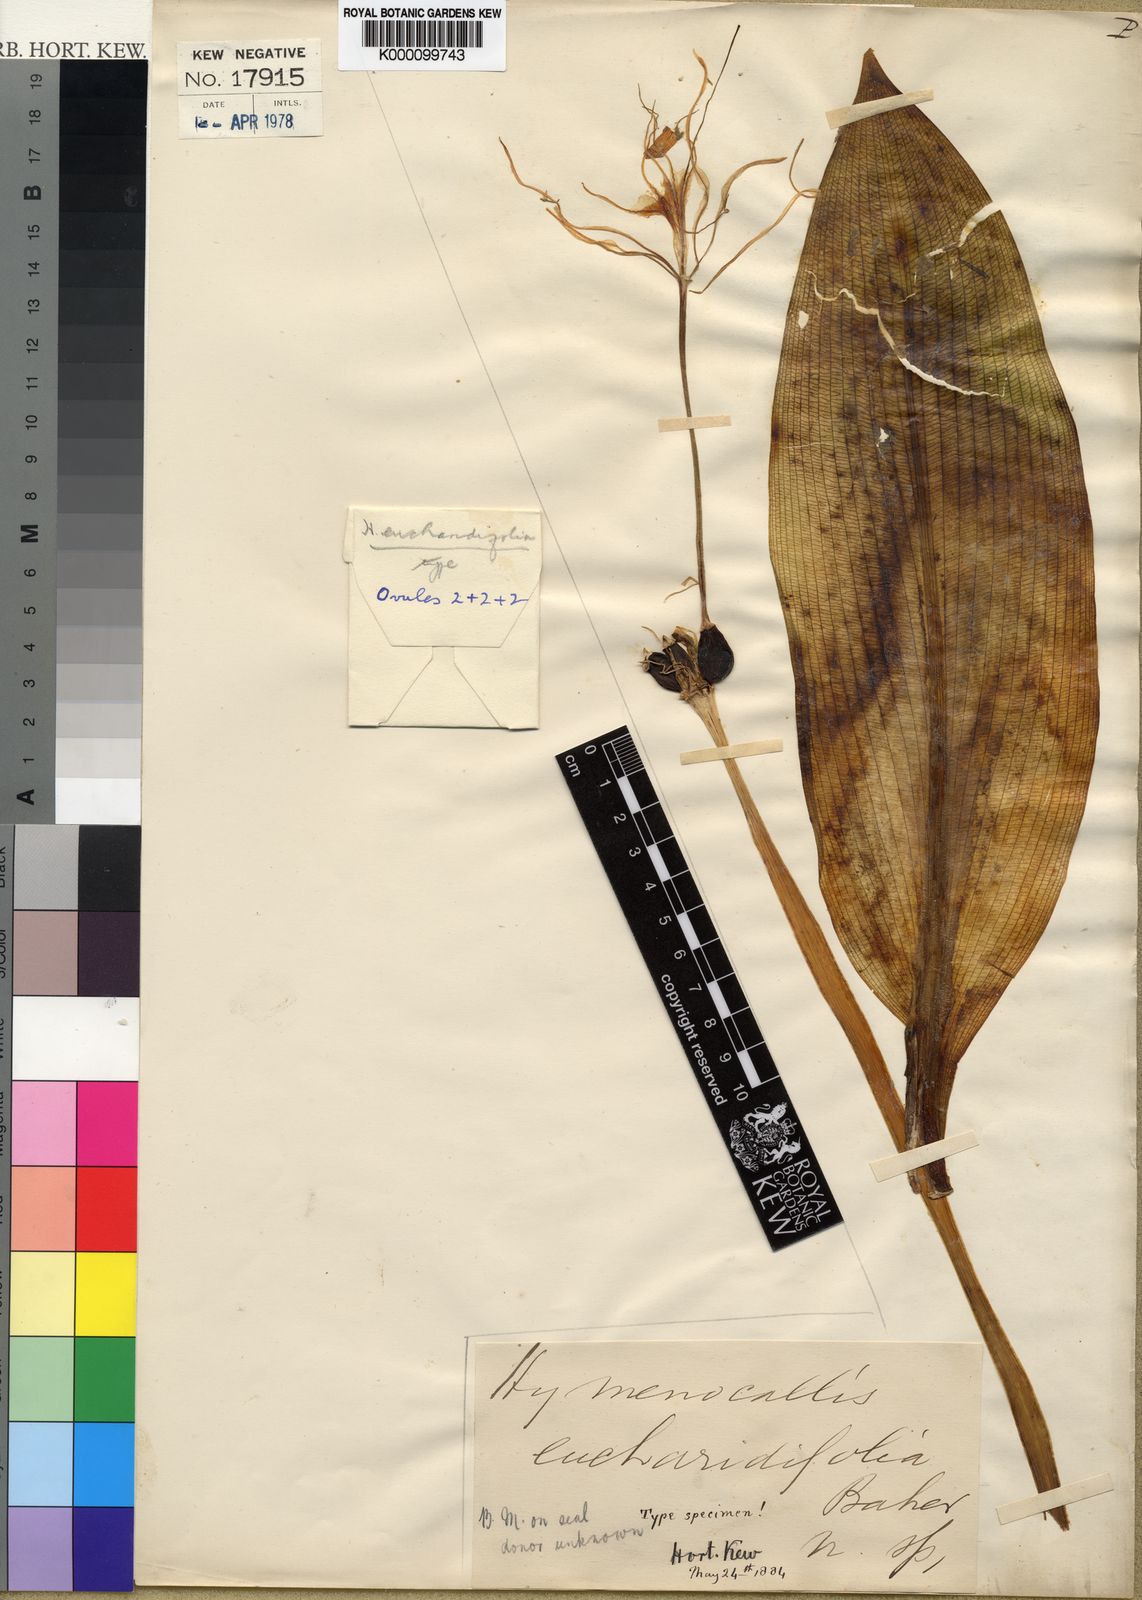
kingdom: Plantae
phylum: Tracheophyta
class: Liliopsida
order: Asparagales
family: Amaryllidaceae
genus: Hymenocallis
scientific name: Hymenocallis eucharidifolia
